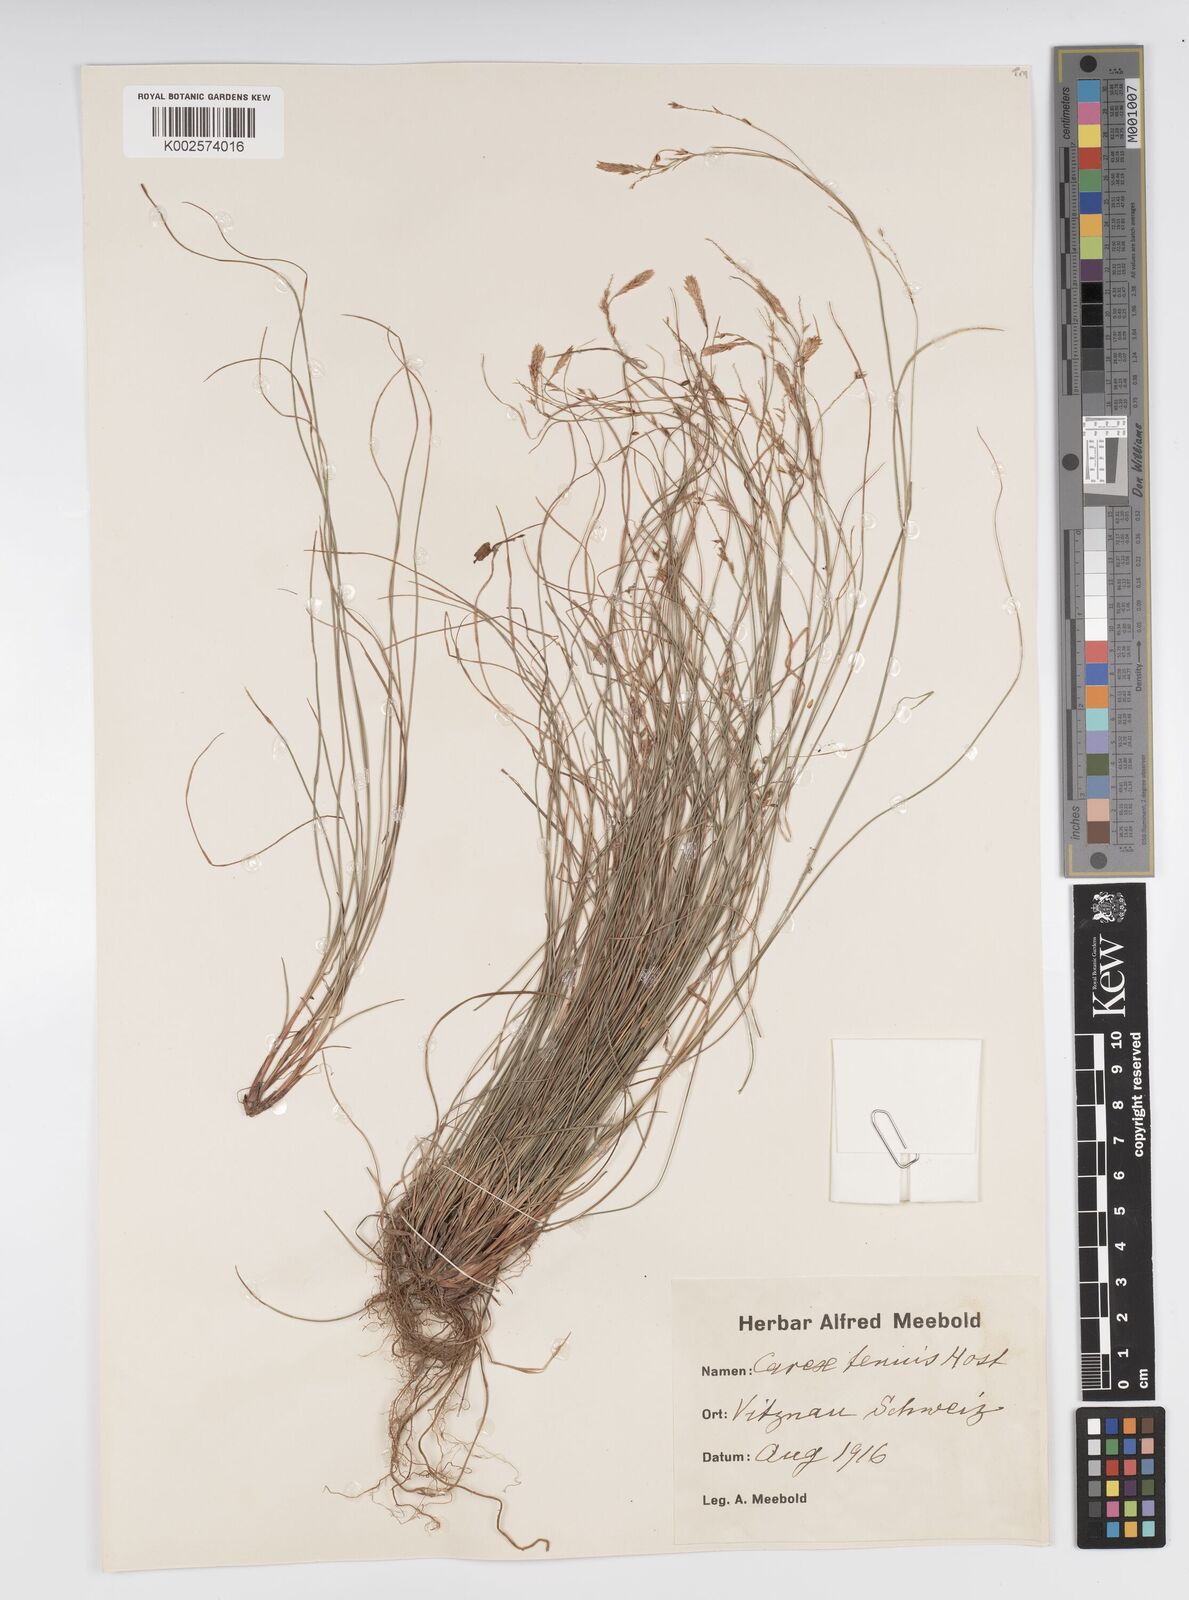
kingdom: Plantae
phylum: Tracheophyta
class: Liliopsida
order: Poales
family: Cyperaceae
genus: Carex
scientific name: Carex brachystachys
